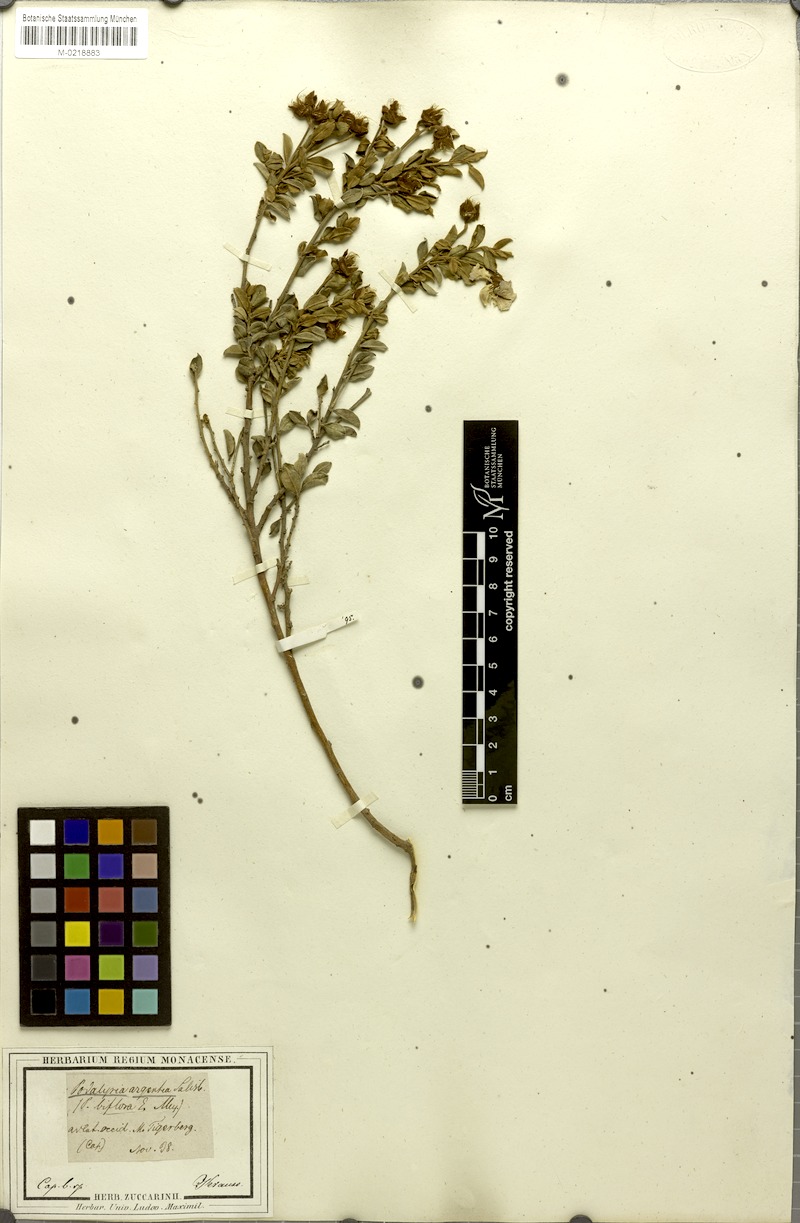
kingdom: Plantae
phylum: Tracheophyta
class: Magnoliopsida
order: Fabales
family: Fabaceae
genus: Podalyria
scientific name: Podalyria racemulosa
